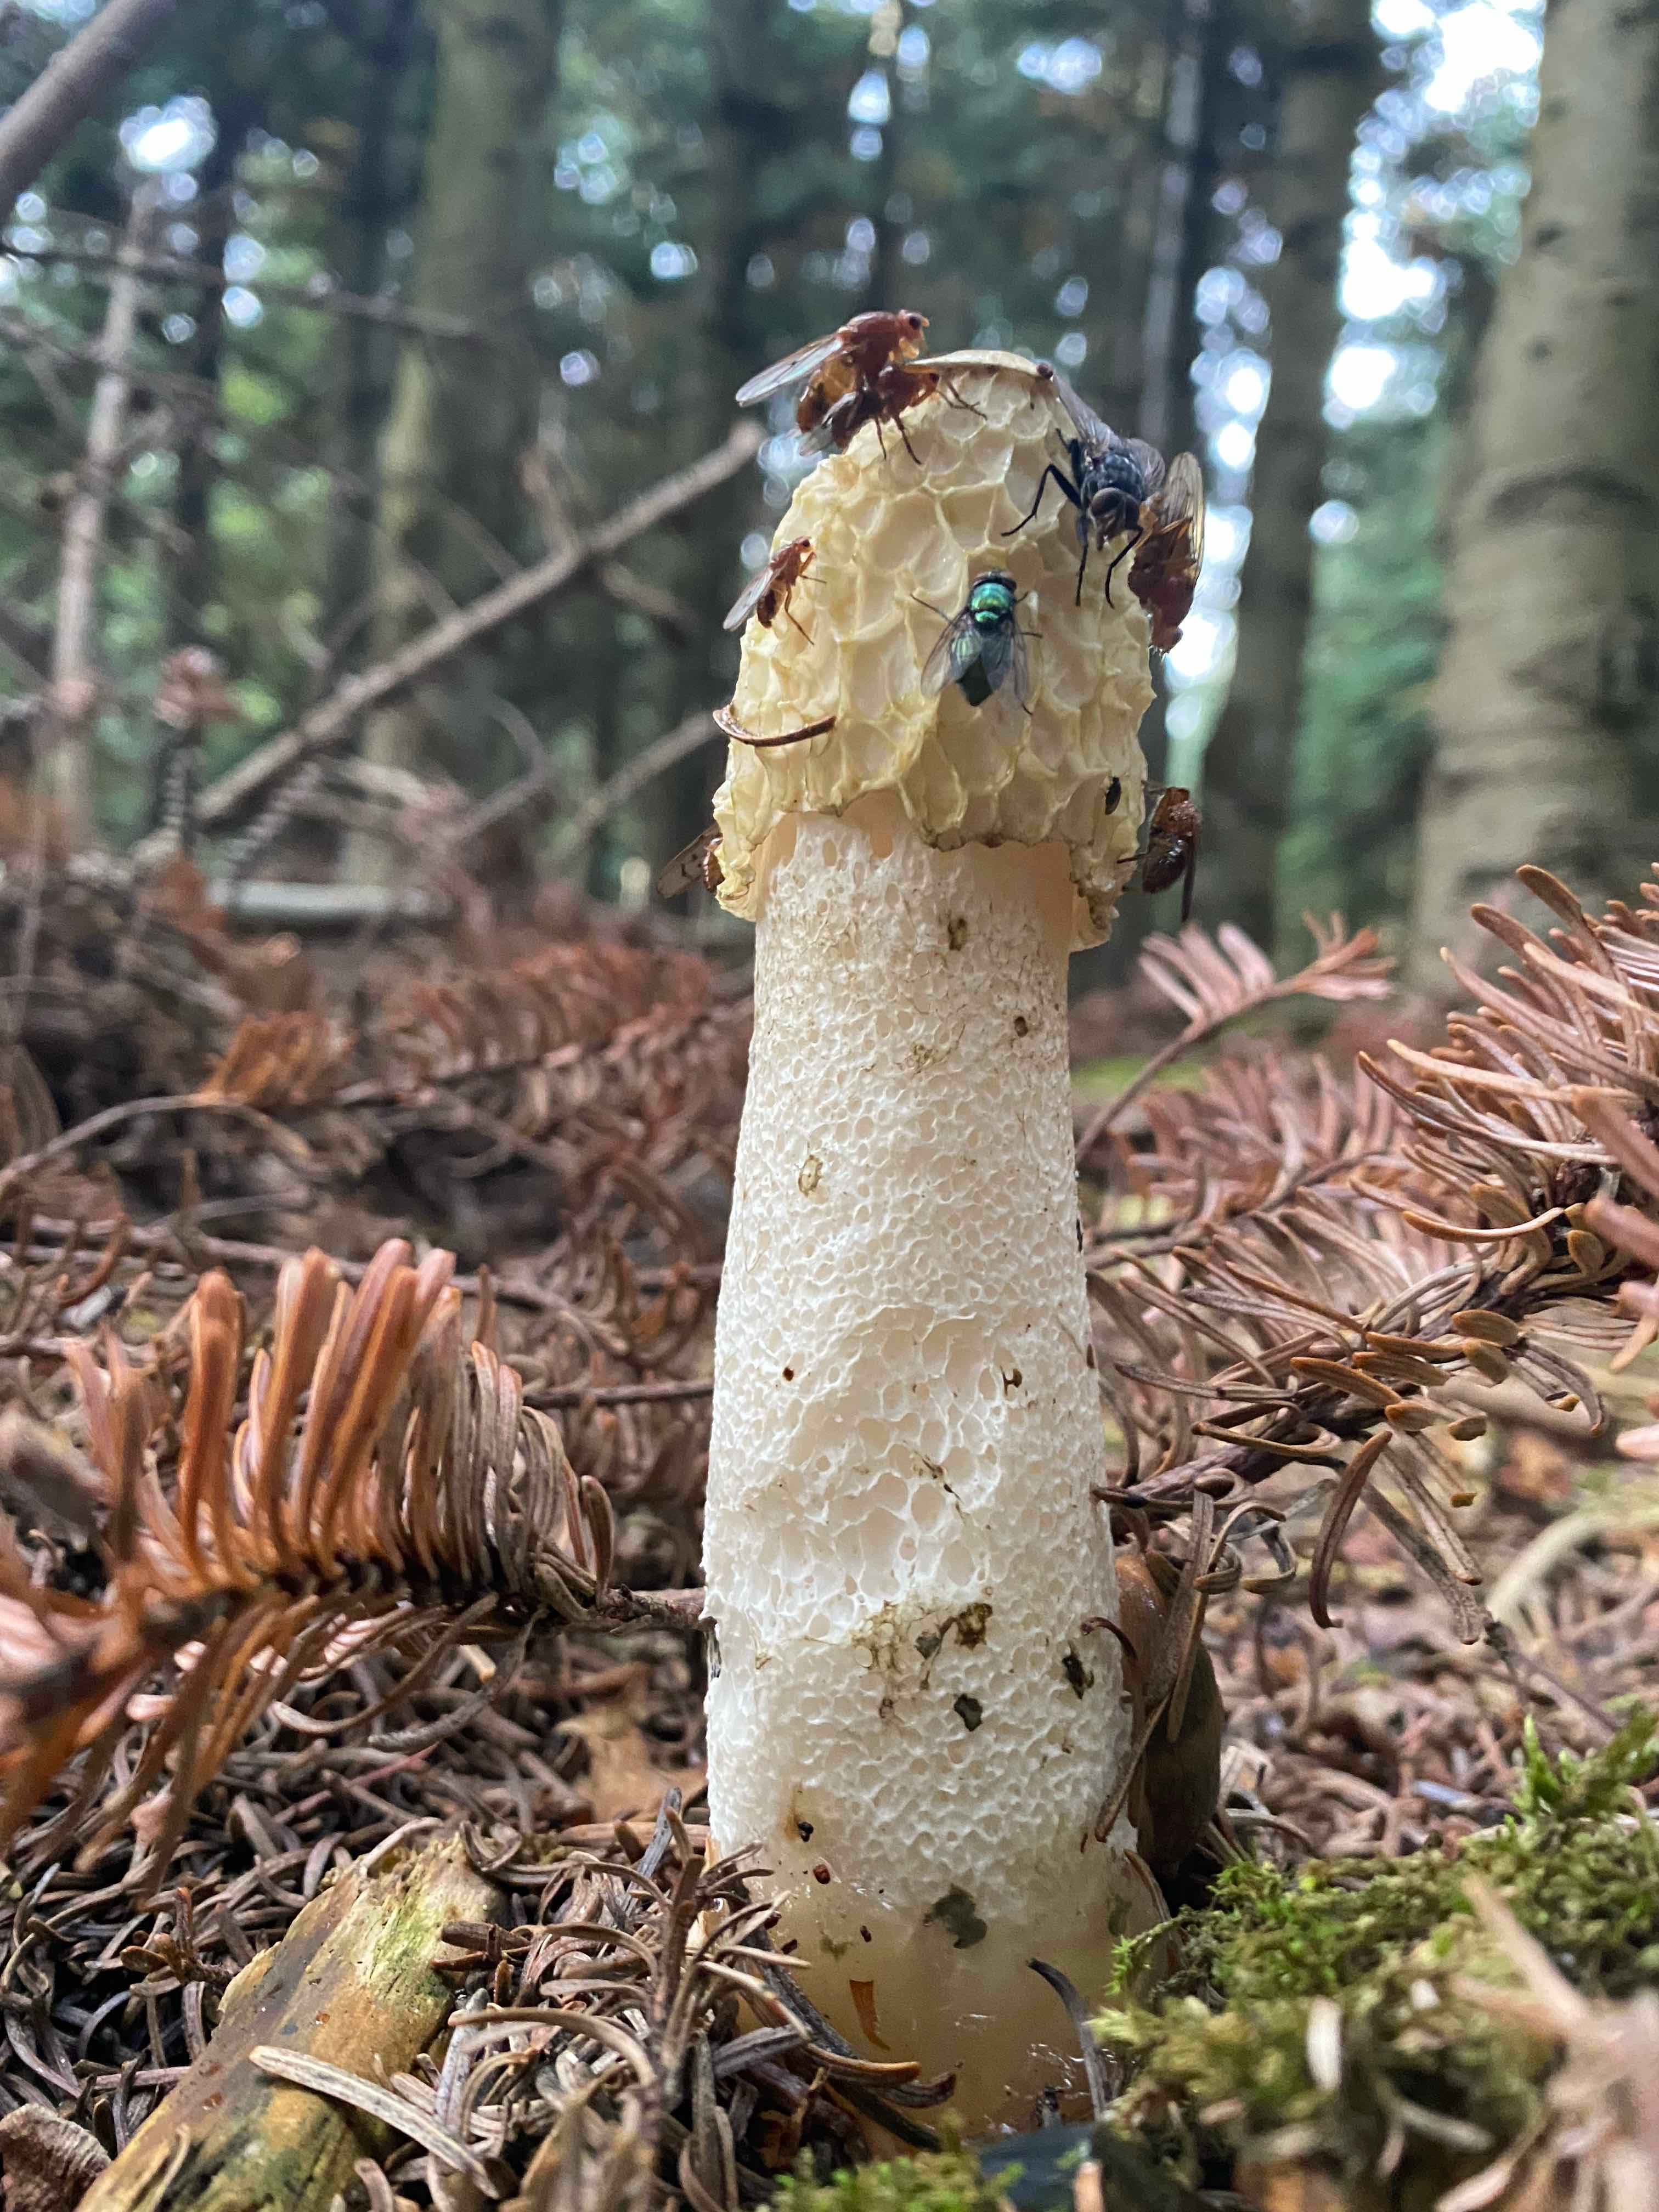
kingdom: Fungi
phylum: Basidiomycota
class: Agaricomycetes
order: Phallales
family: Phallaceae
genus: Phallus
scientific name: Phallus impudicus
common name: almindelig stinksvamp
